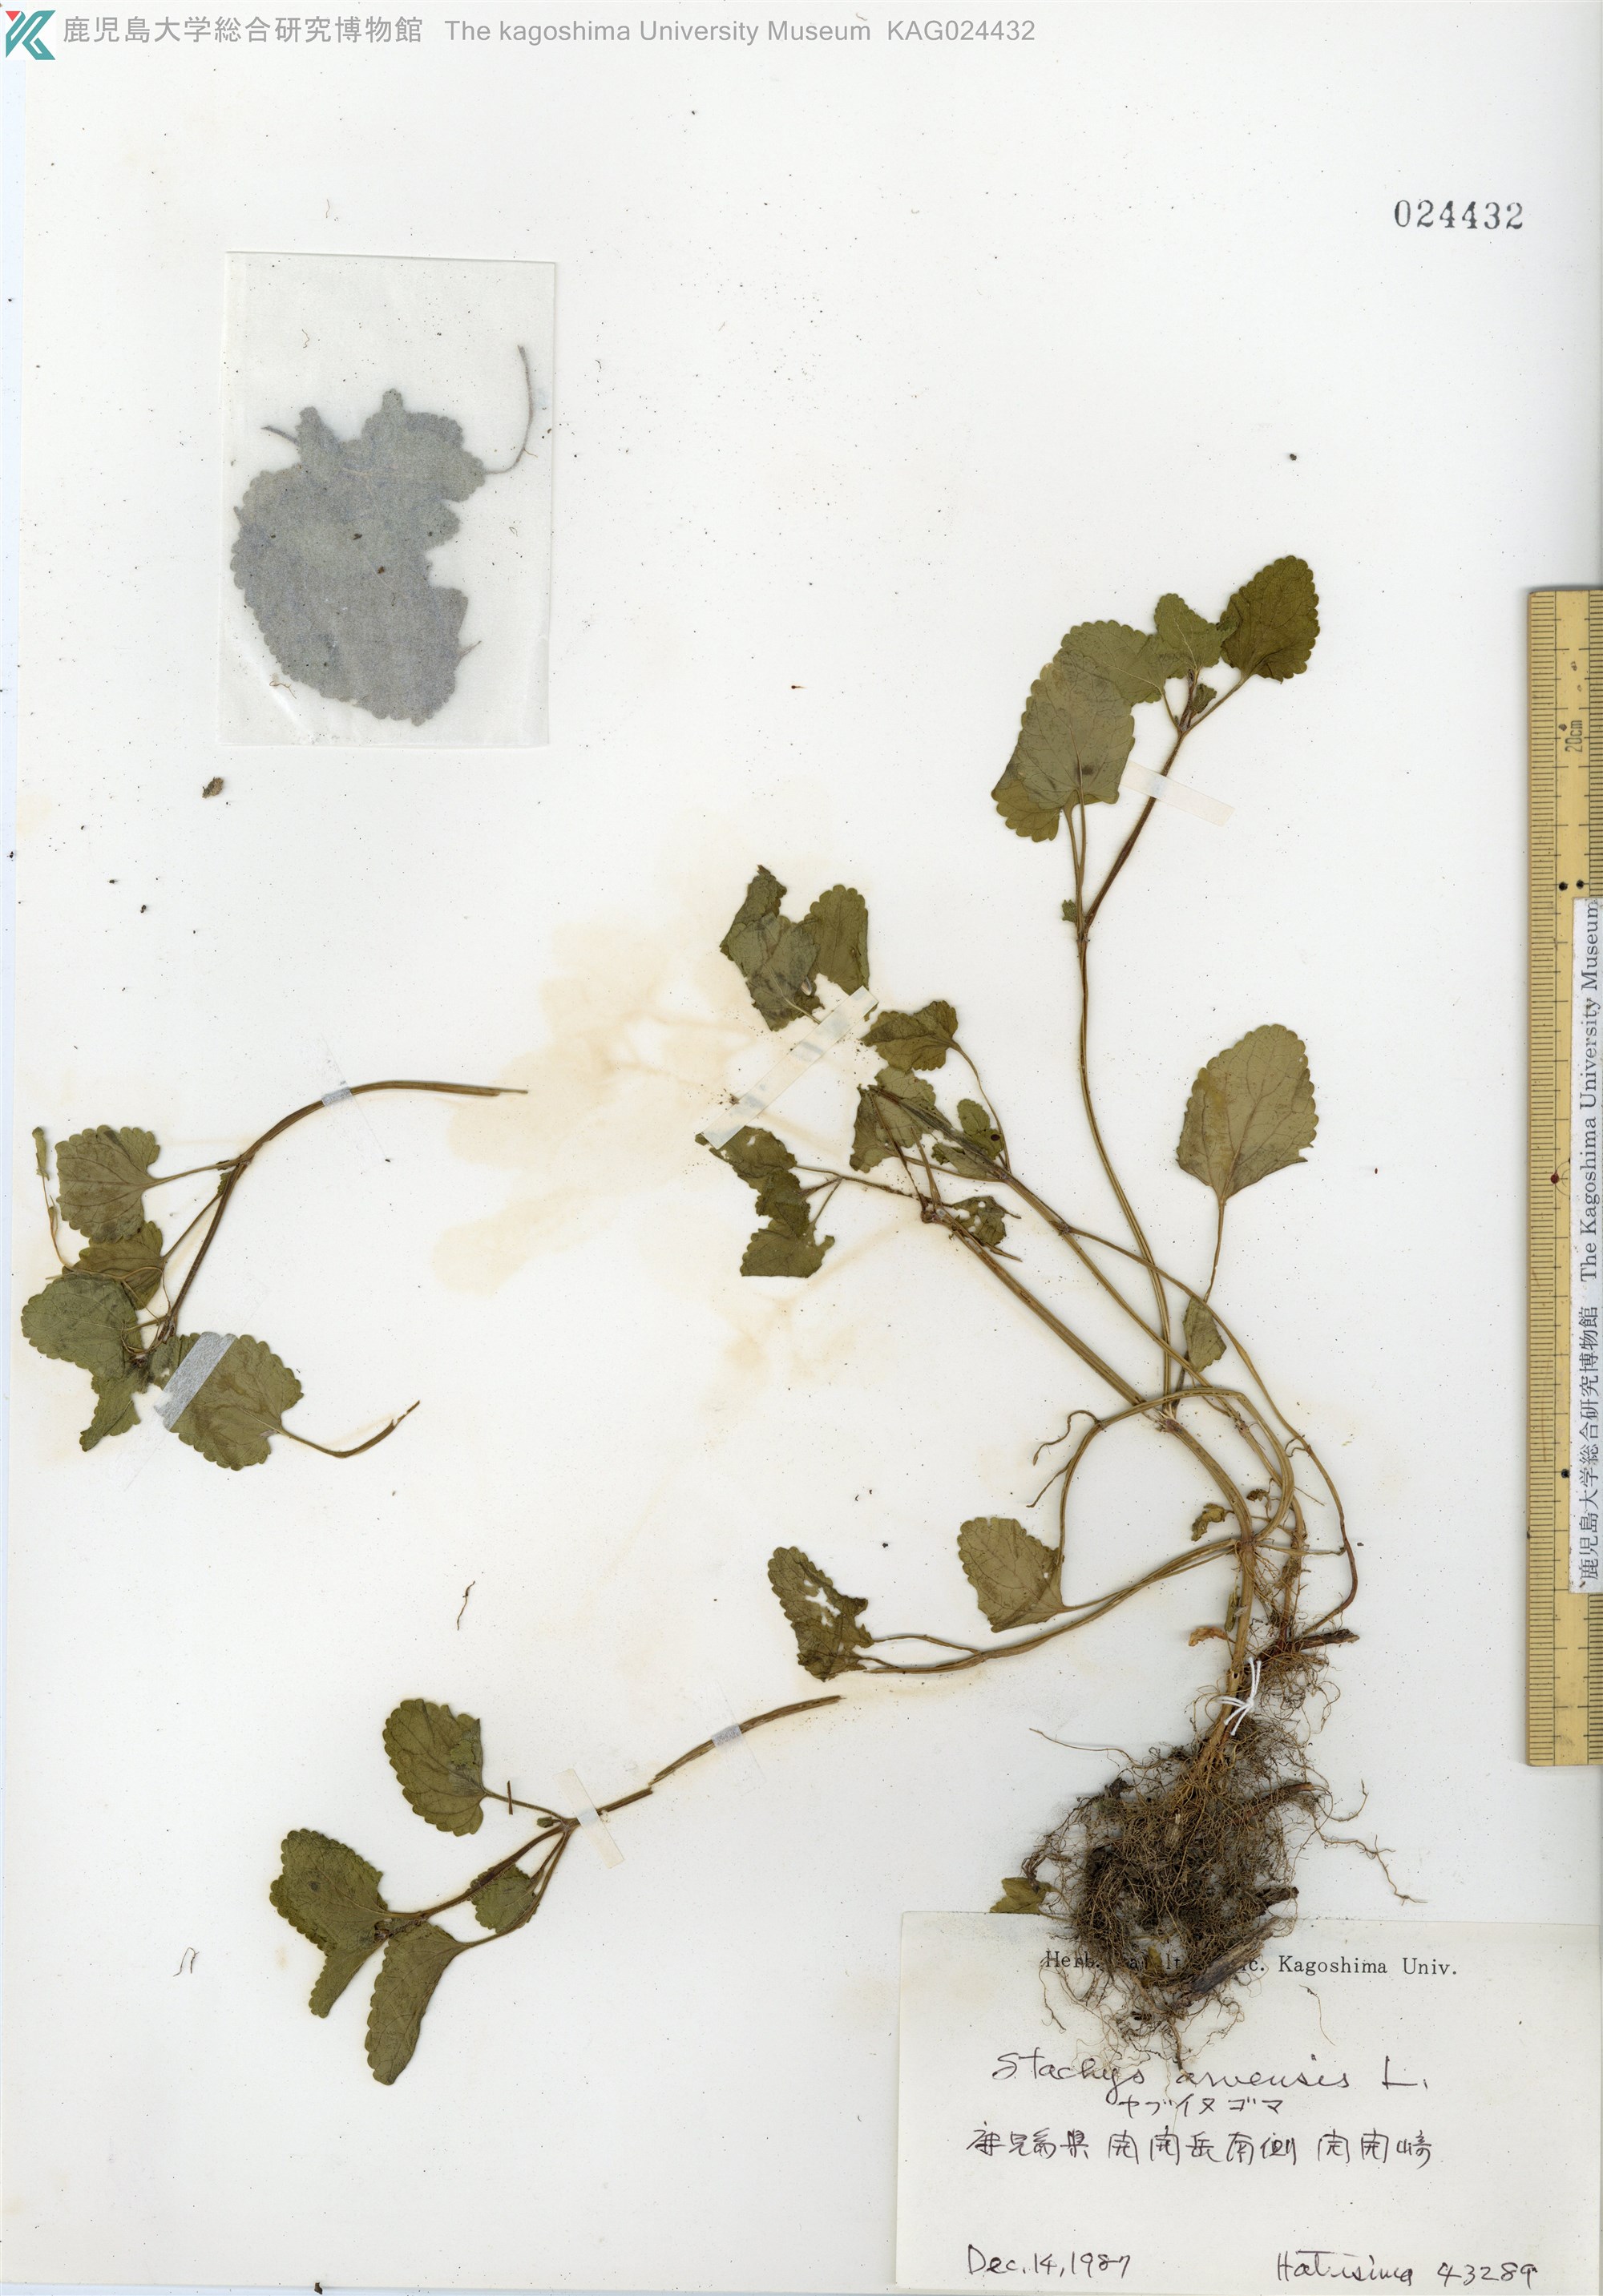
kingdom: Plantae
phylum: Tracheophyta
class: Magnoliopsida
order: Lamiales
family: Lamiaceae
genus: Stachys
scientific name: Stachys arvensis
